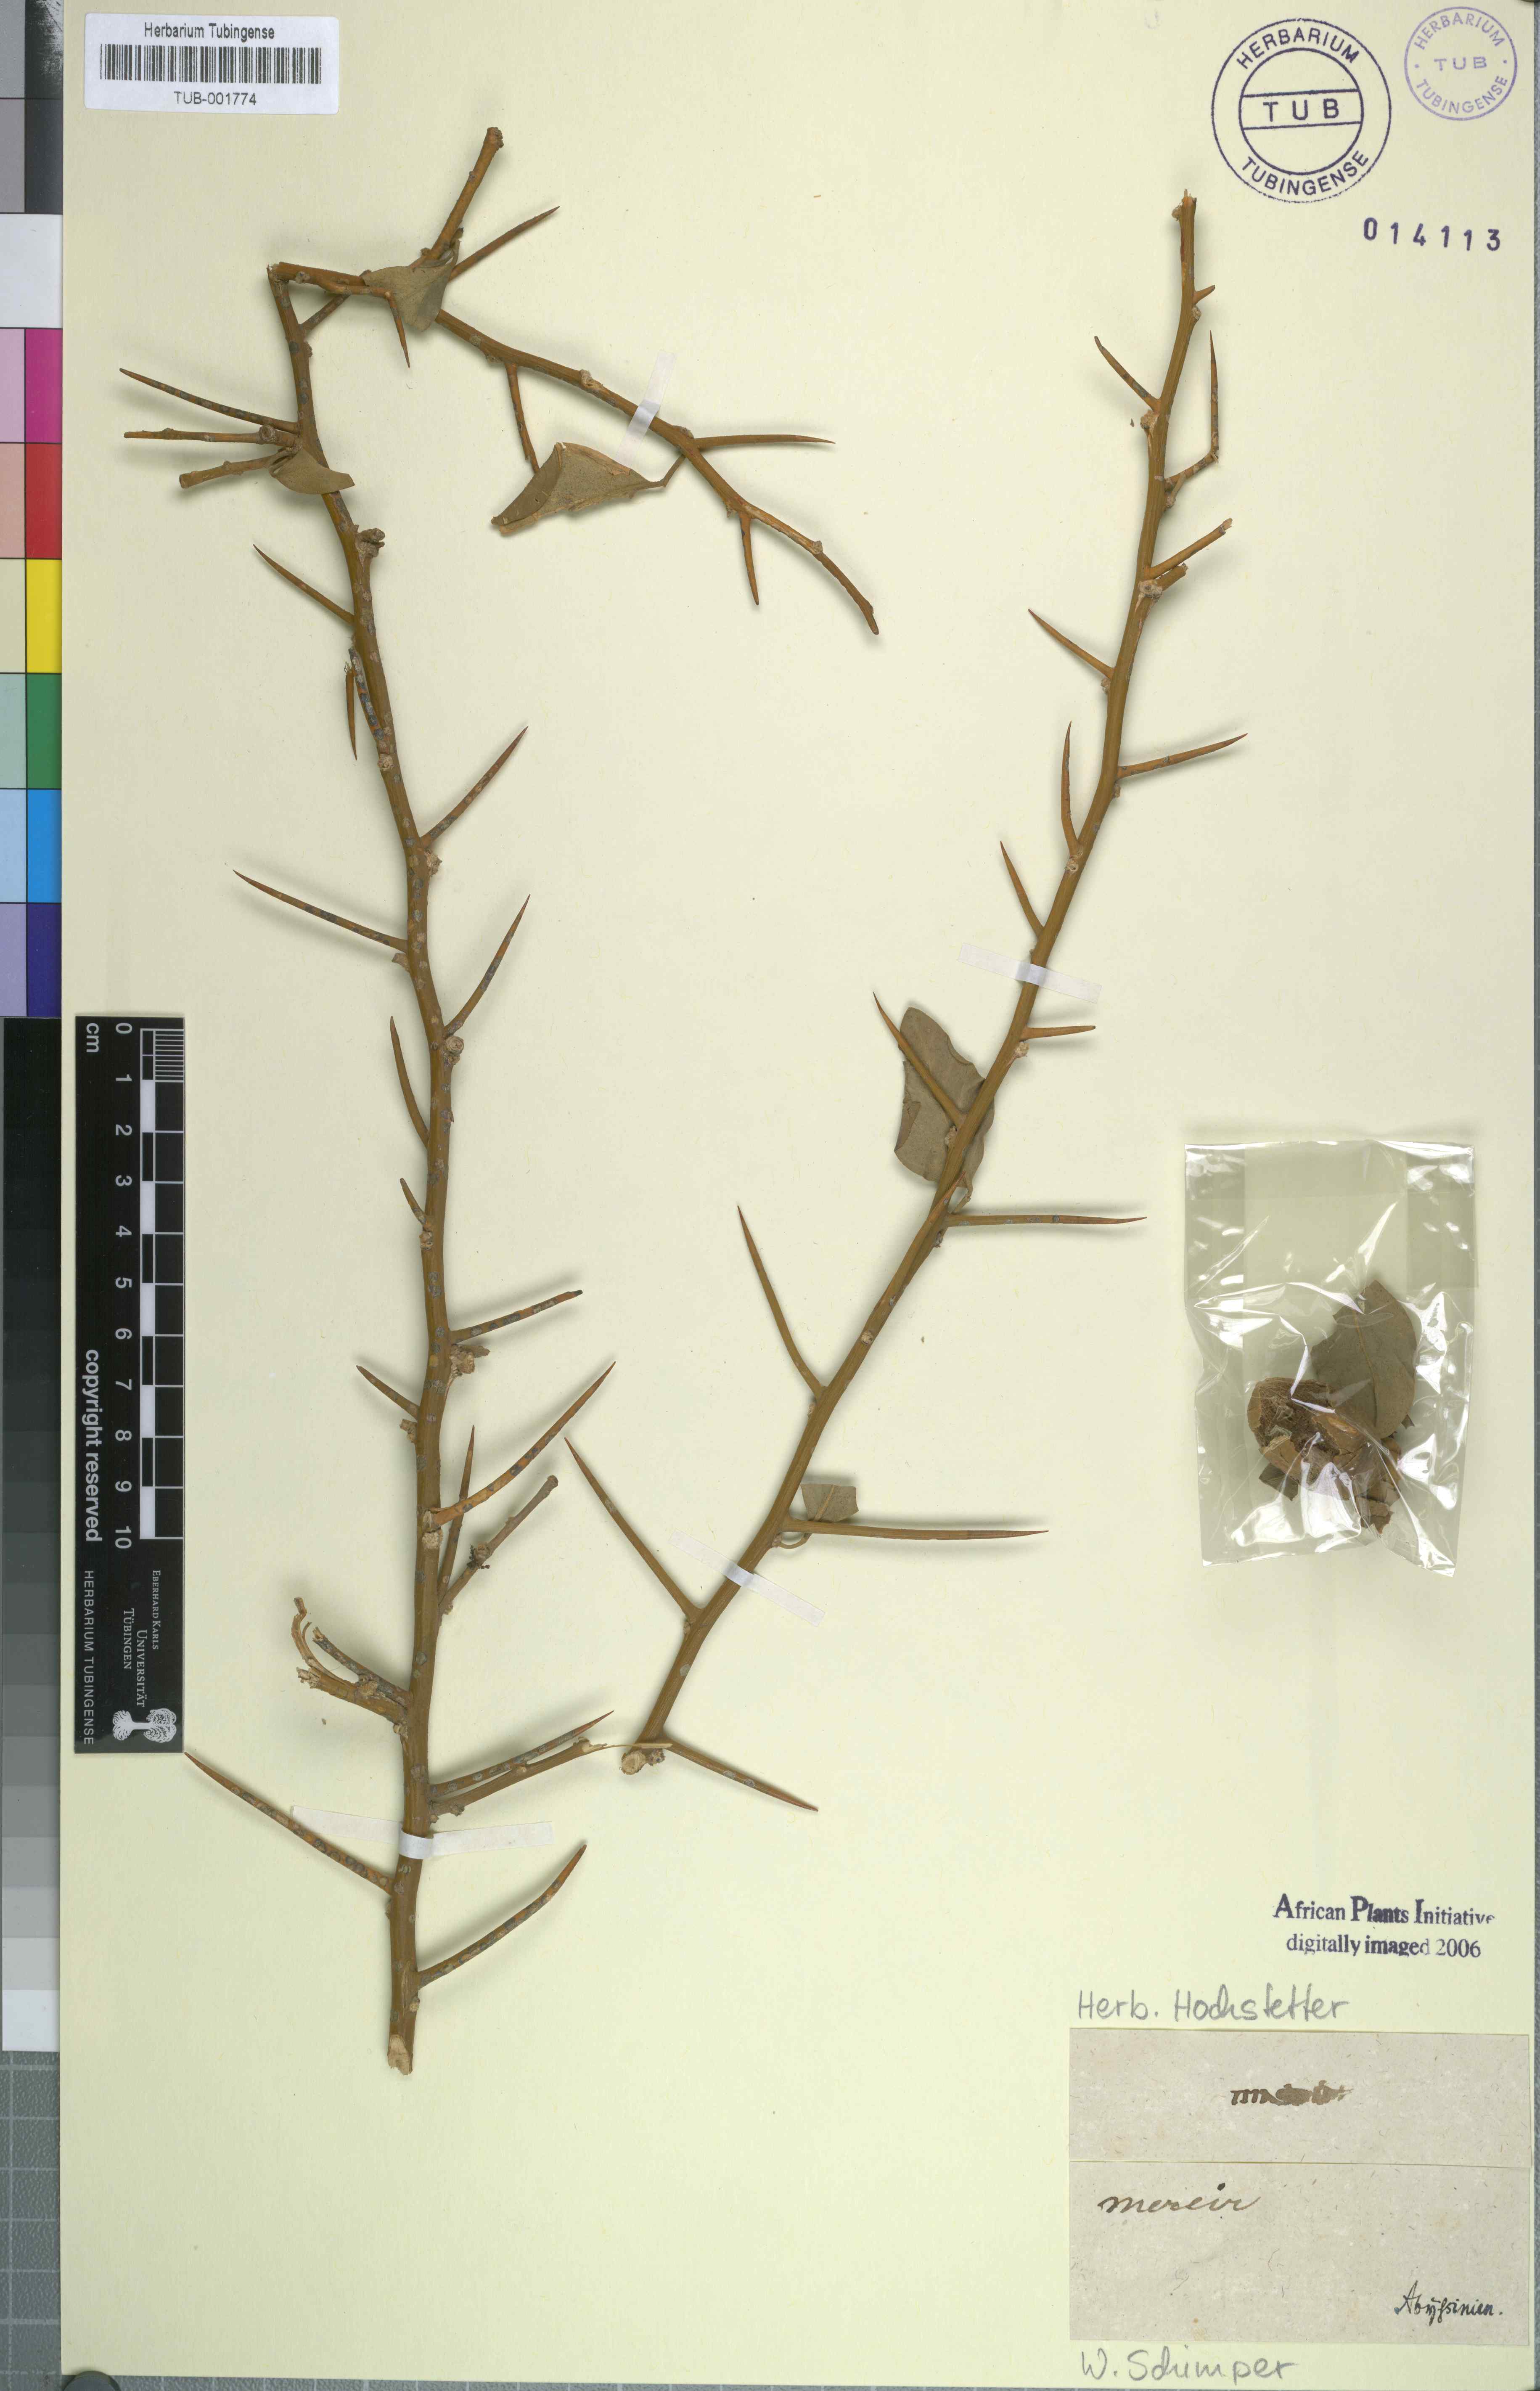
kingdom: Plantae
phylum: Tracheophyta
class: Magnoliopsida
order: Sapindales
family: Tetradiclidaceae
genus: Peganum
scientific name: Peganum
